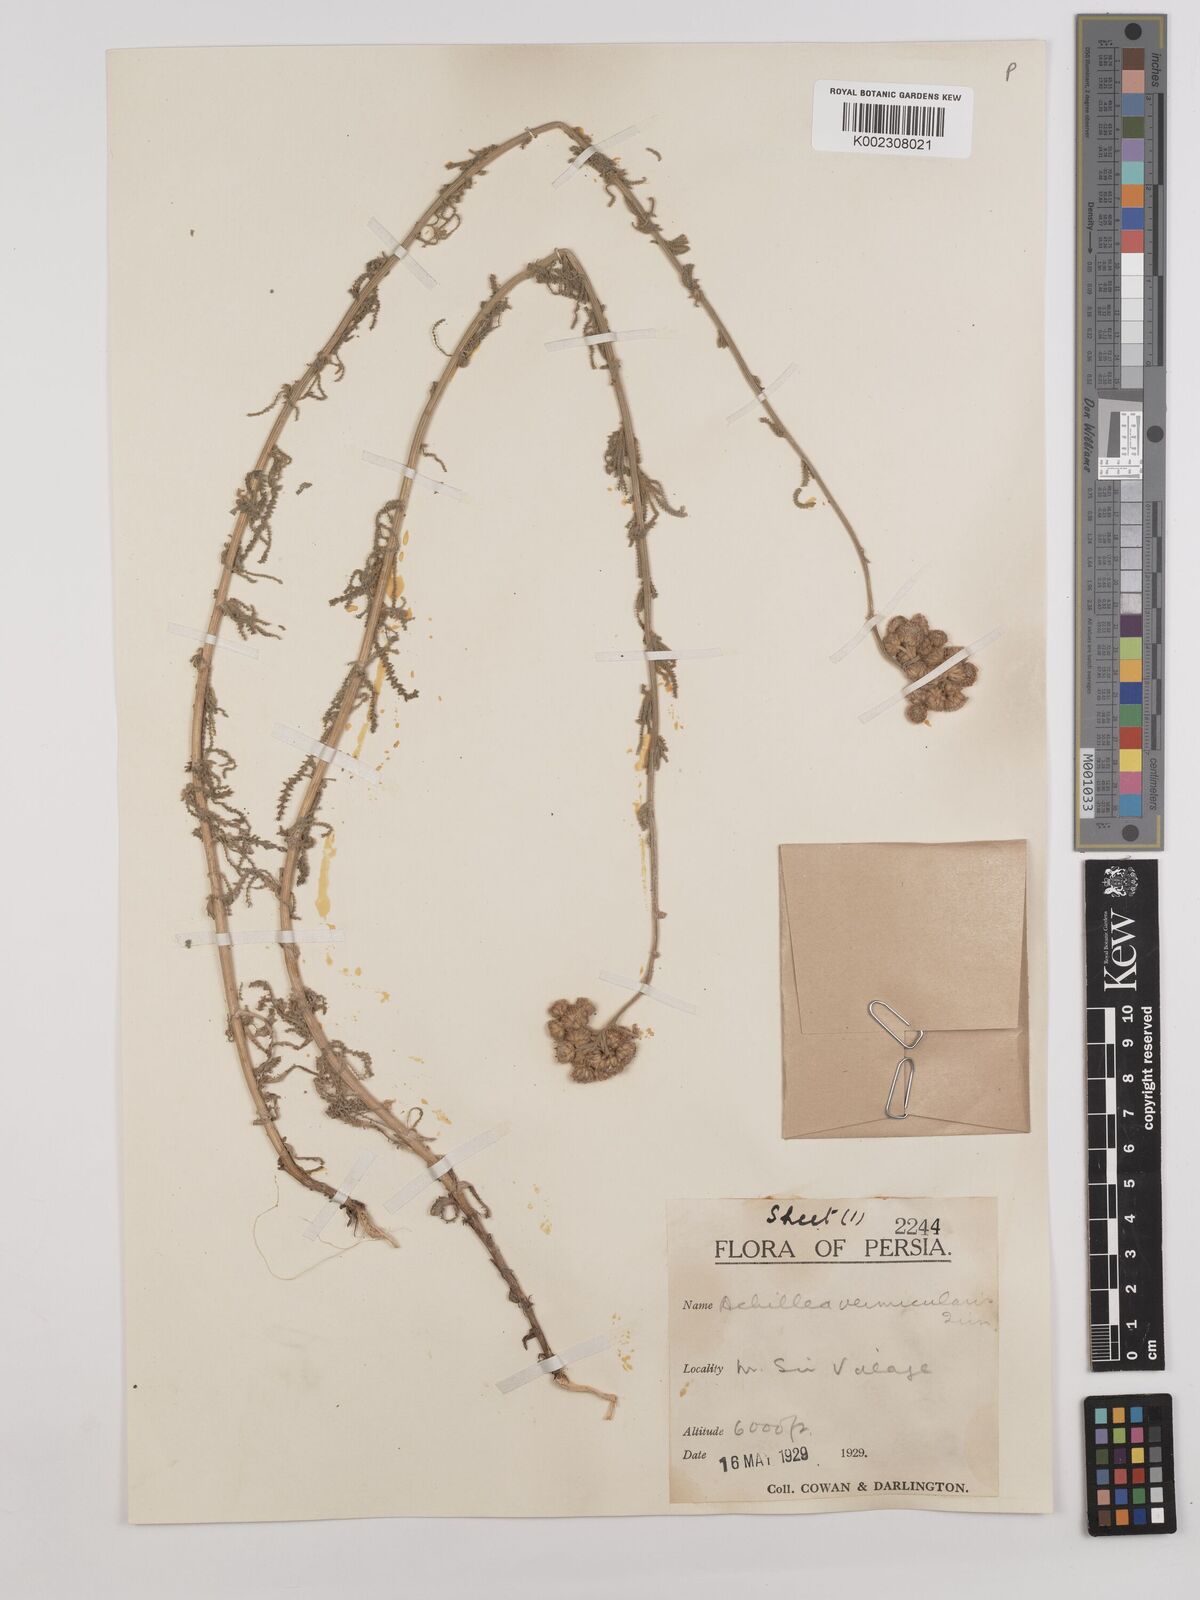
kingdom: Plantae
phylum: Tracheophyta
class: Magnoliopsida
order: Asterales
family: Asteraceae
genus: Achillea
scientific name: Achillea vermicularis
